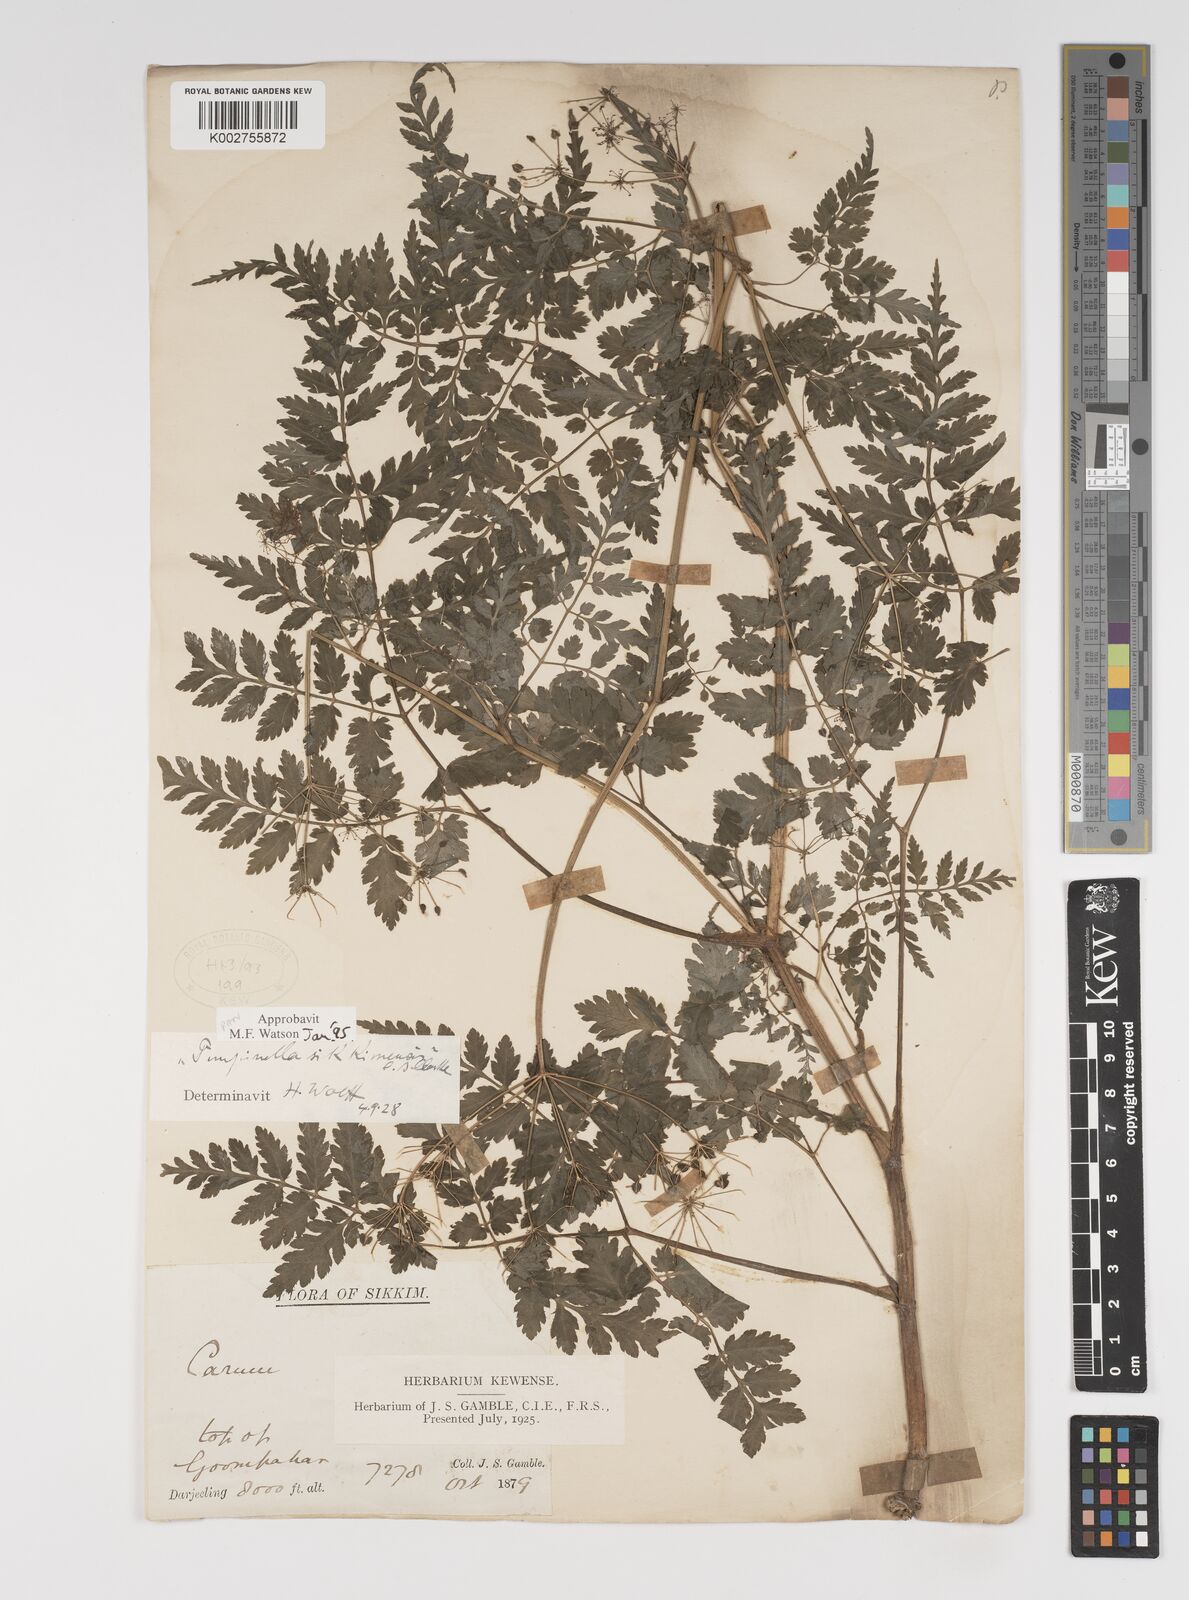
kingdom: Plantae
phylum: Tracheophyta
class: Magnoliopsida
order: Apiales
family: Apiaceae
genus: Pimpinella
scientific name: Pimpinella sikkimensis
